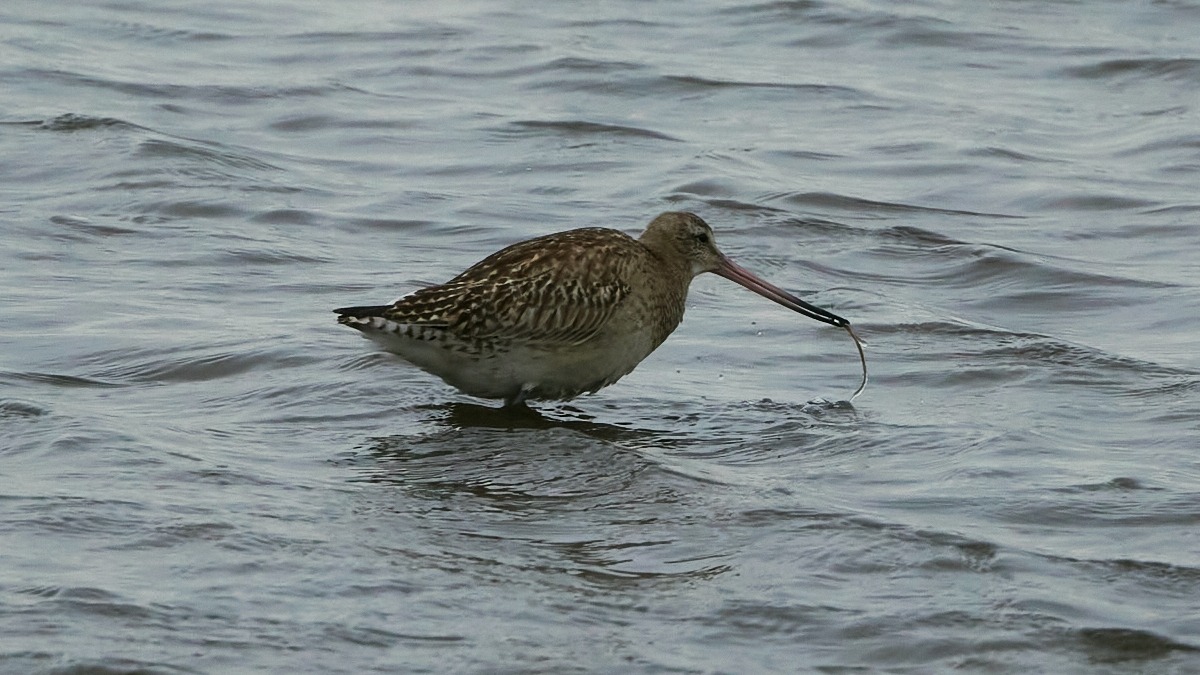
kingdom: Animalia
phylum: Chordata
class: Aves
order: Charadriiformes
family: Scolopacidae
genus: Limosa
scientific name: Limosa lapponica
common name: Lille kobbersneppe
